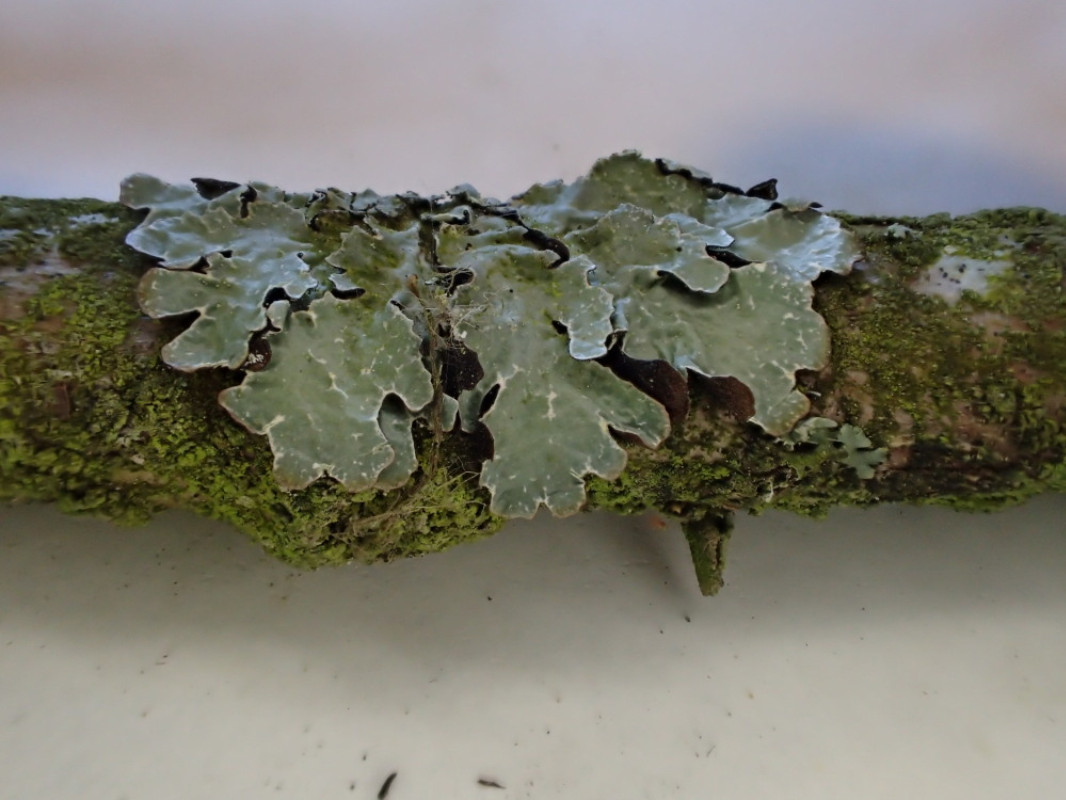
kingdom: Fungi
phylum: Ascomycota
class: Lecanoromycetes
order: Lecanorales
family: Parmeliaceae
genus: Parmelia
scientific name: Parmelia sulcata
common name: rynket skållav
